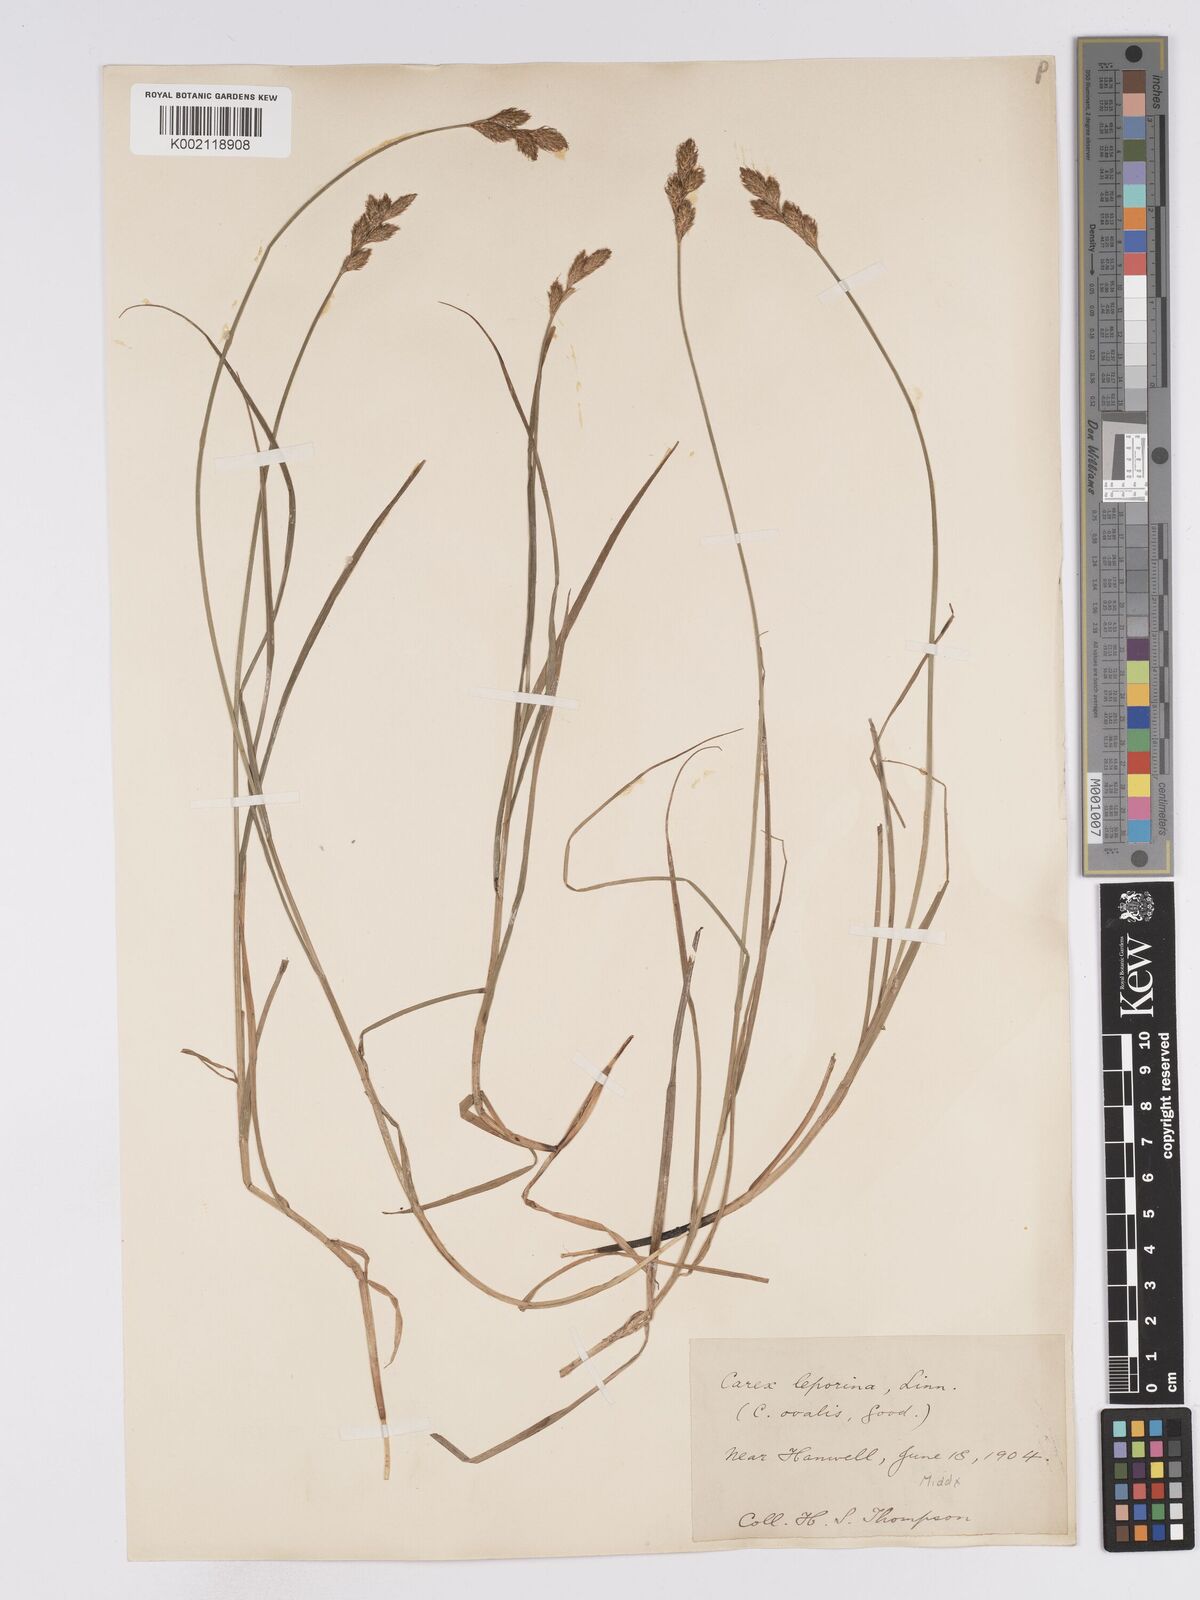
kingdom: Plantae
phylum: Tracheophyta
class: Liliopsida
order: Poales
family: Cyperaceae
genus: Carex
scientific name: Carex leporina
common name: Oval sedge
